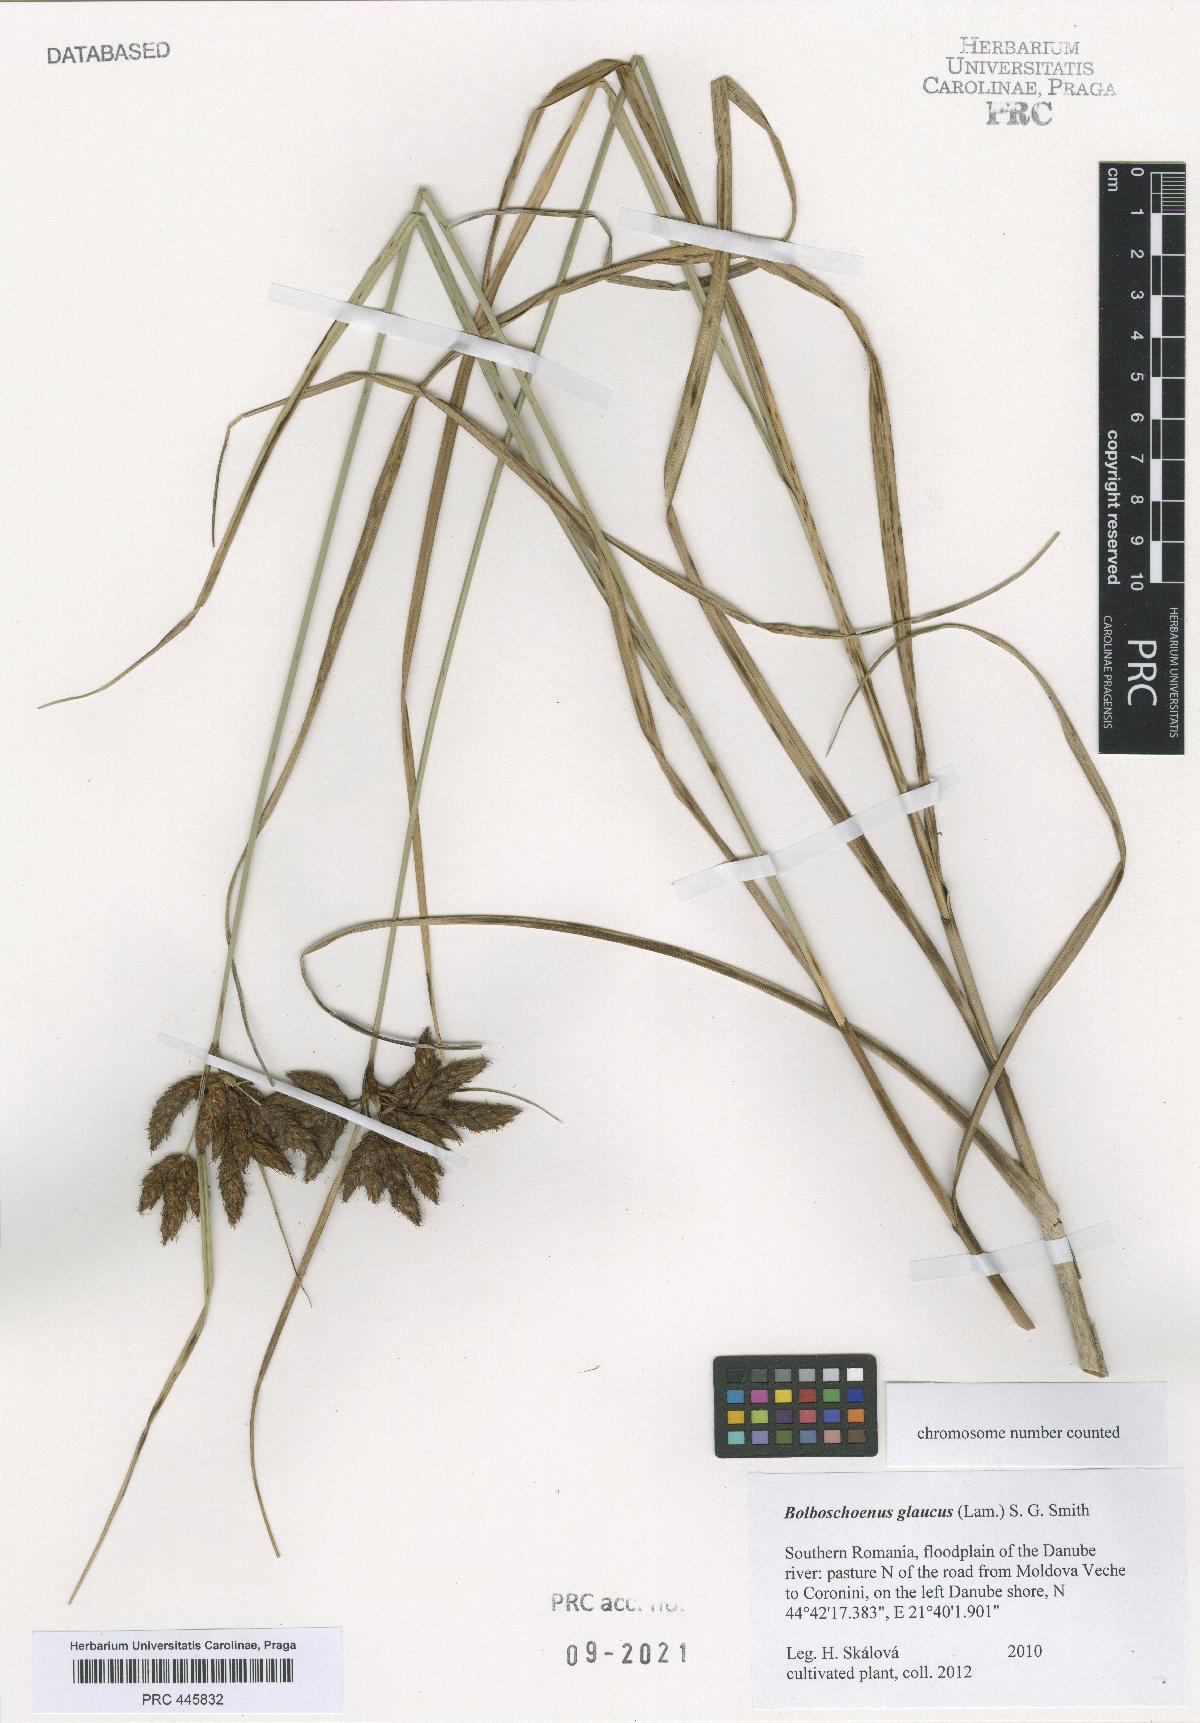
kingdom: Plantae
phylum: Tracheophyta
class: Liliopsida
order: Poales
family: Cyperaceae
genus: Bolboschoenus
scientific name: Bolboschoenus glaucus
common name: Tuberous bulrush
